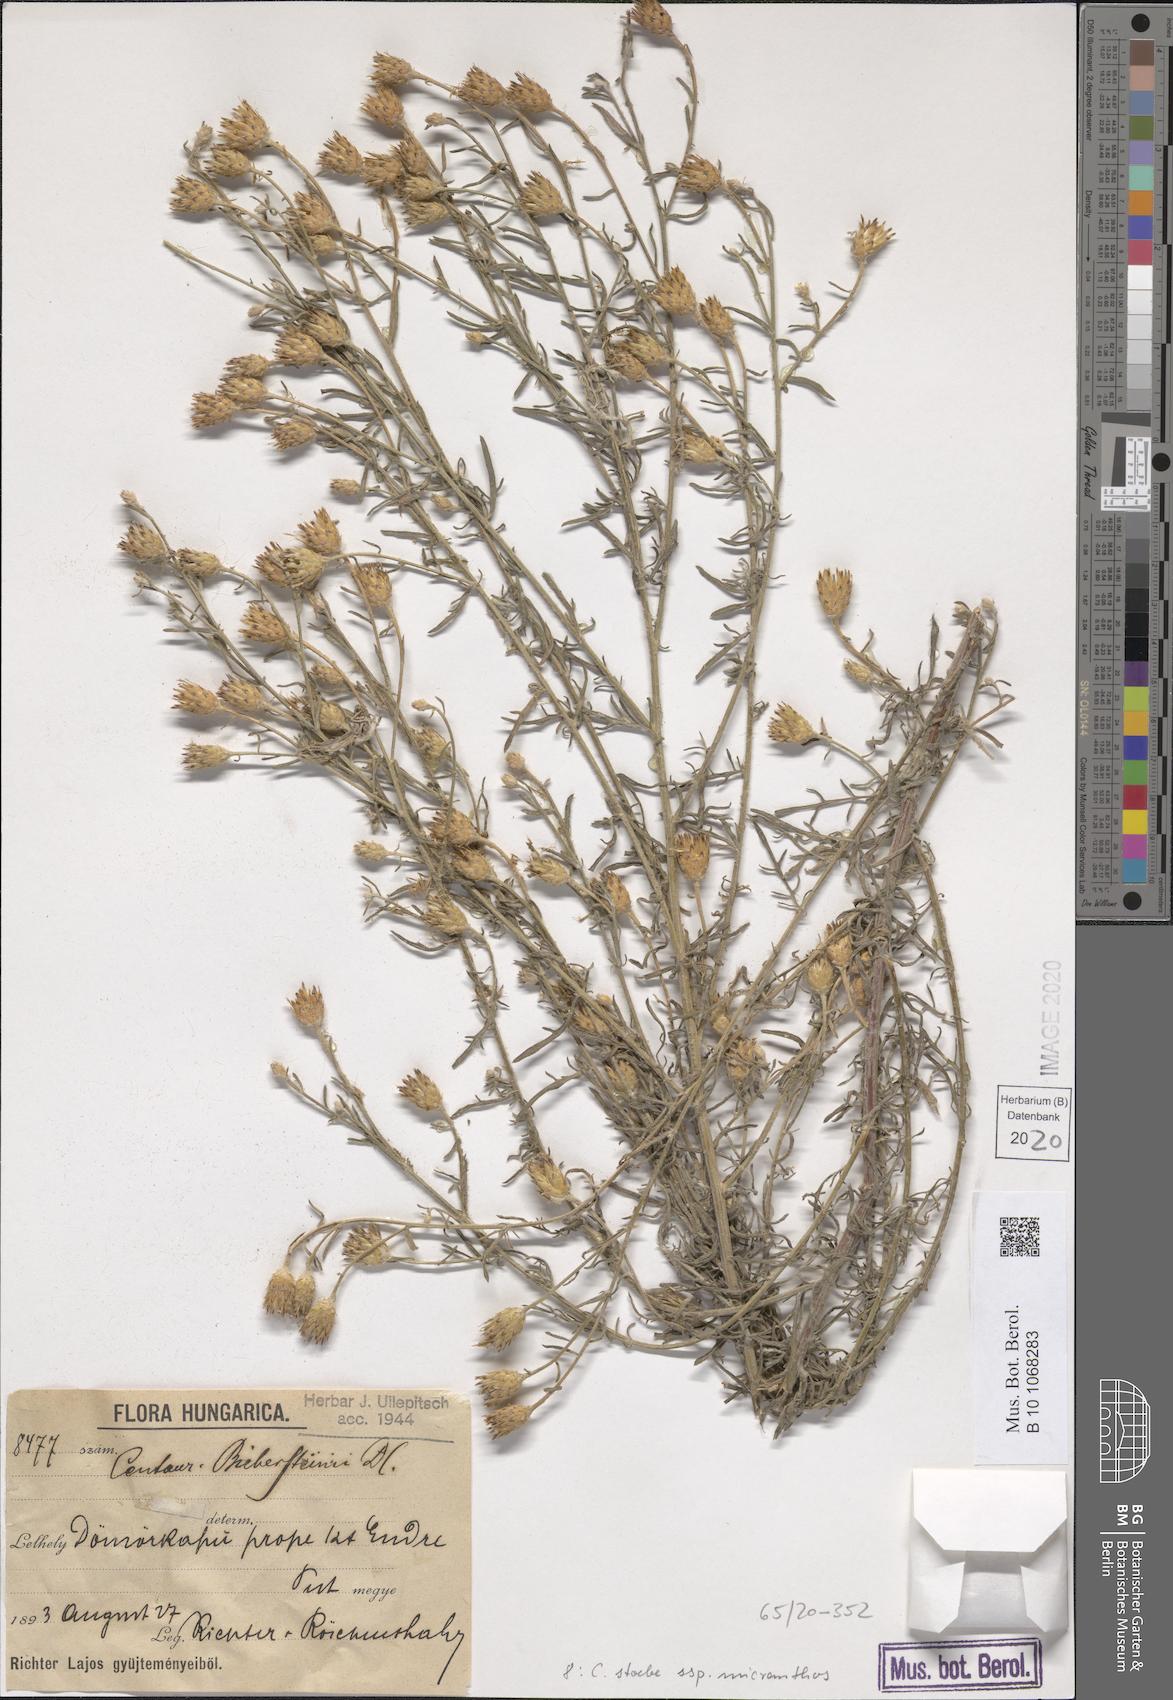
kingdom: Plantae
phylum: Tracheophyta
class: Magnoliopsida
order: Asterales
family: Asteraceae
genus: Centaurea
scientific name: Centaurea australis
